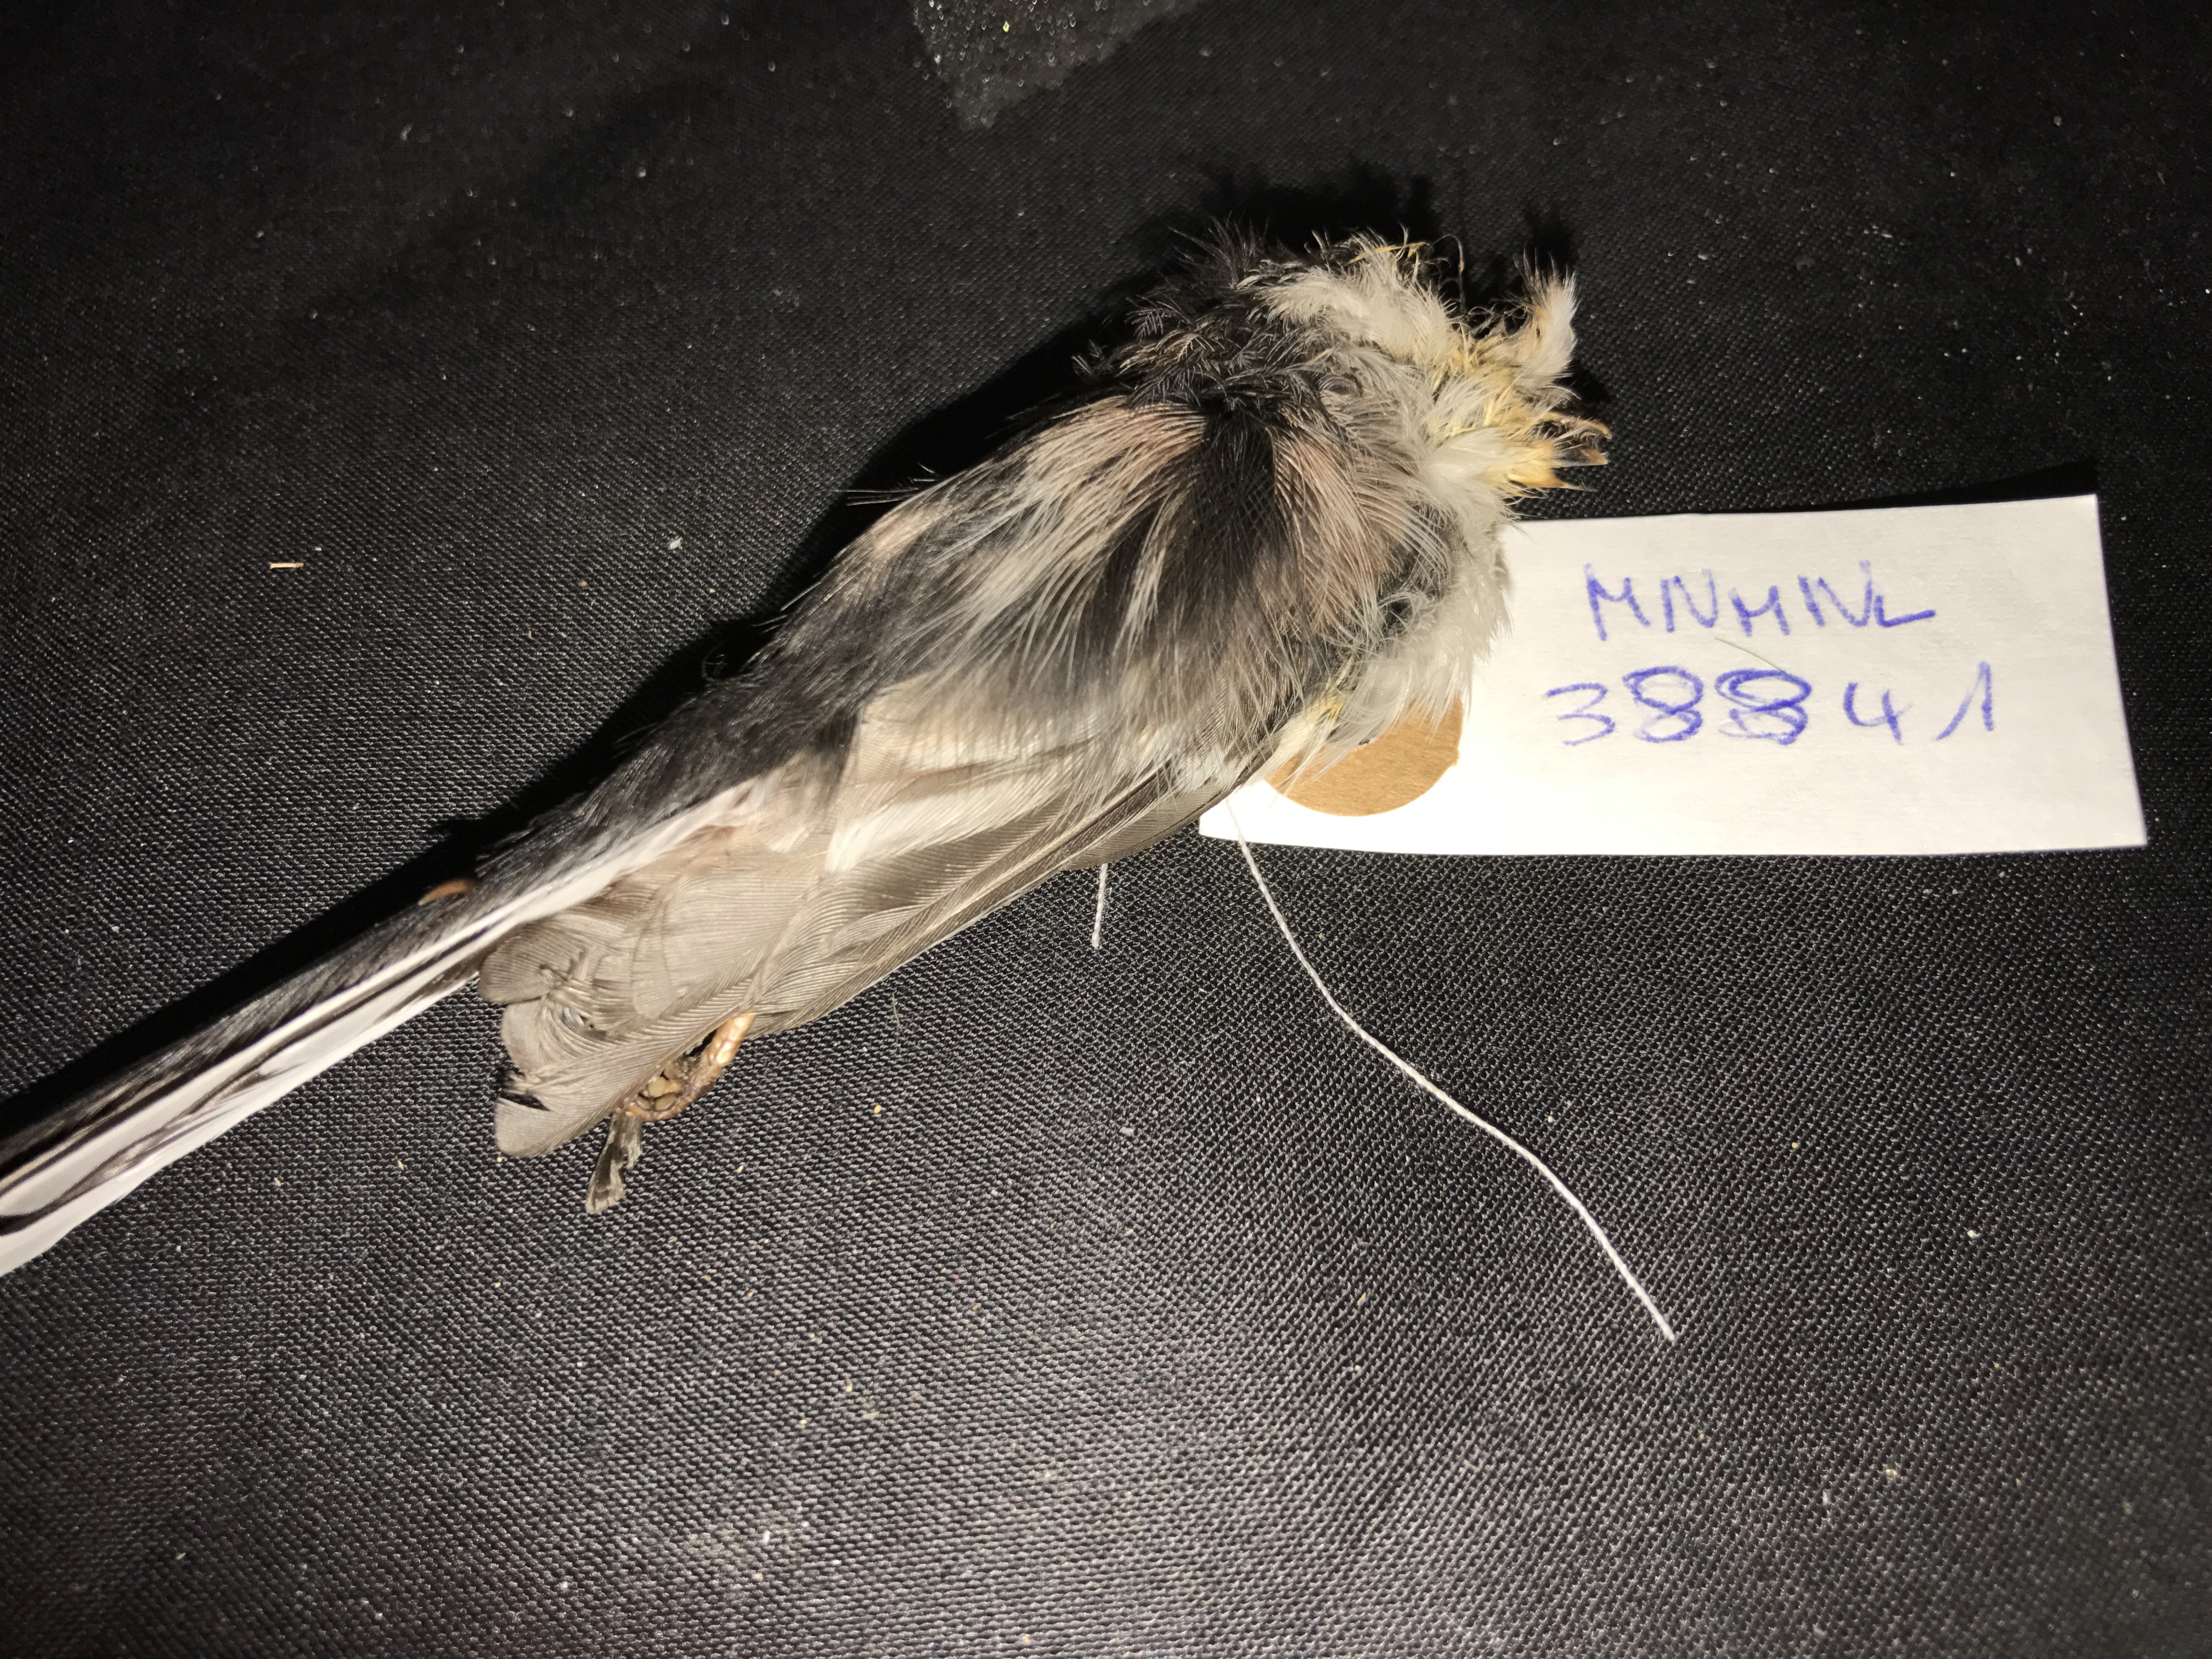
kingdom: Animalia
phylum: Chordata
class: Aves
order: Passeriformes
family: Aegithalidae
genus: Aegithalos
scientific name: Aegithalos caudatus
